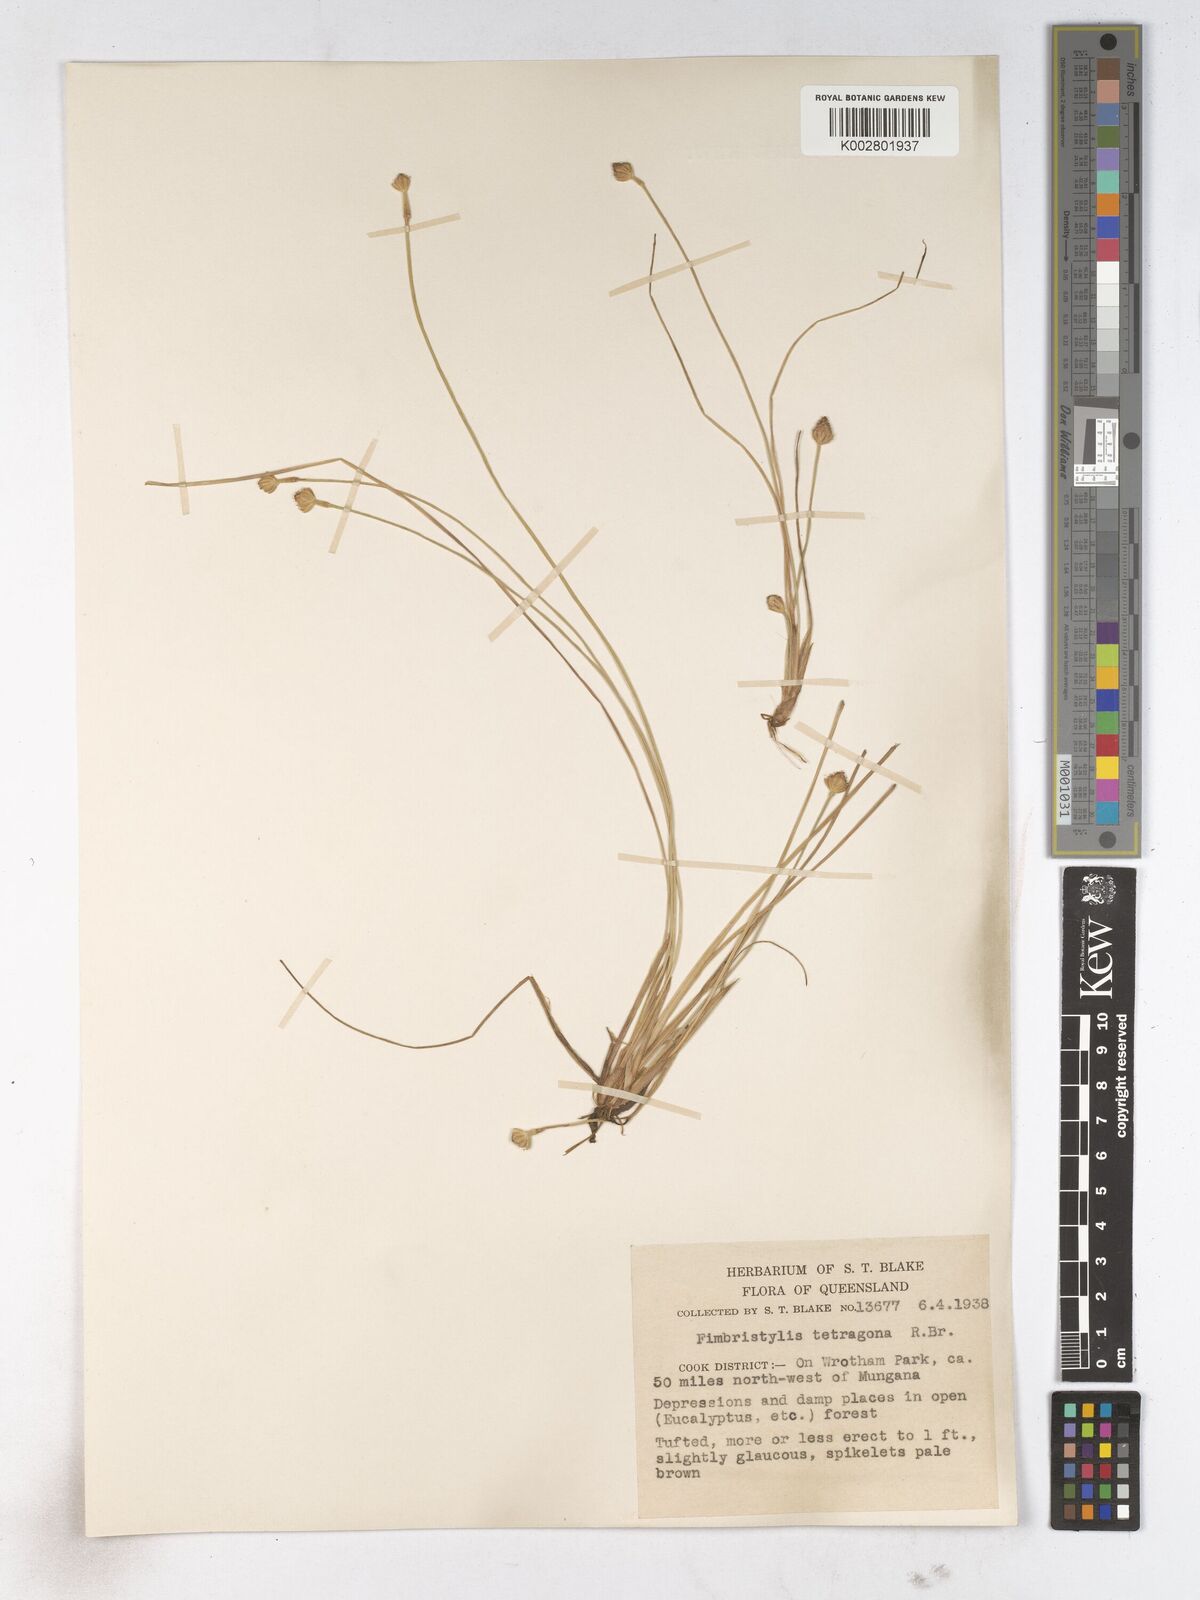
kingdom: Plantae
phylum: Tracheophyta
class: Liliopsida
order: Poales
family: Cyperaceae
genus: Fimbristylis
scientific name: Fimbristylis tetragona
